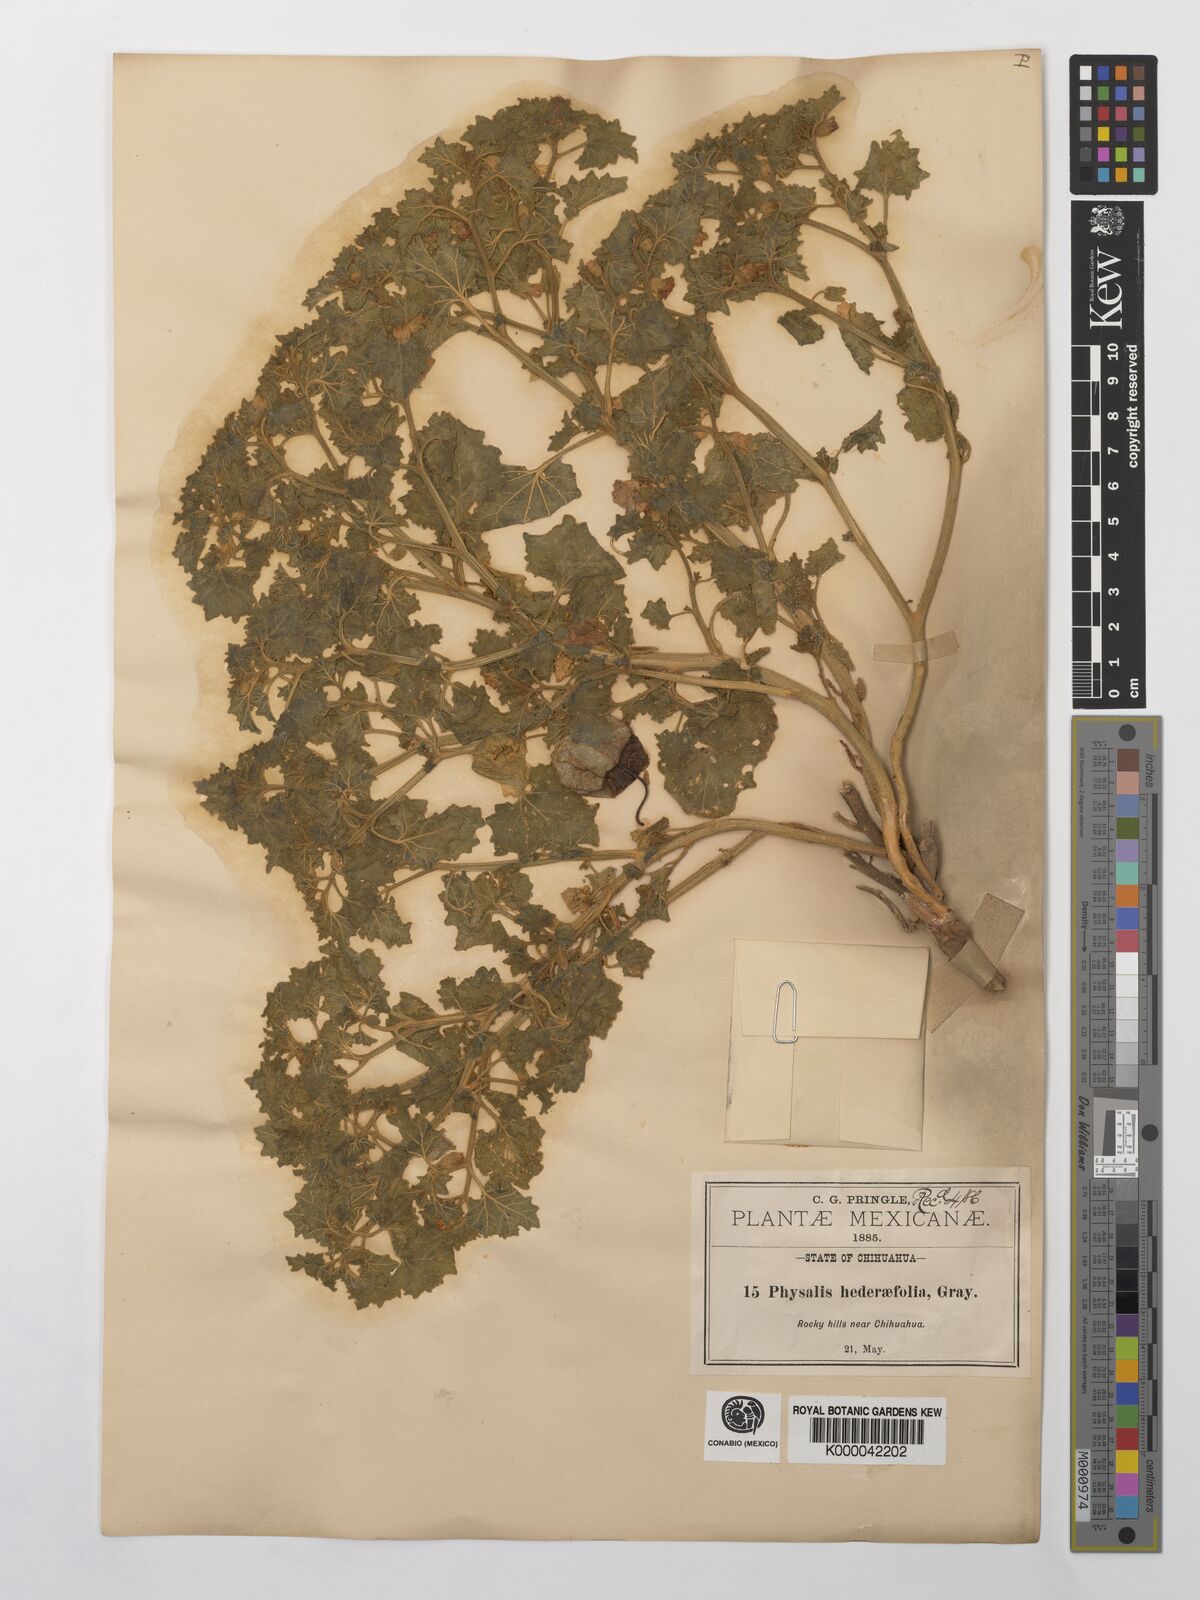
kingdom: Plantae
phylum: Tracheophyta
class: Magnoliopsida
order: Solanales
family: Solanaceae
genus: Physalis
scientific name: Physalis hederifolia
